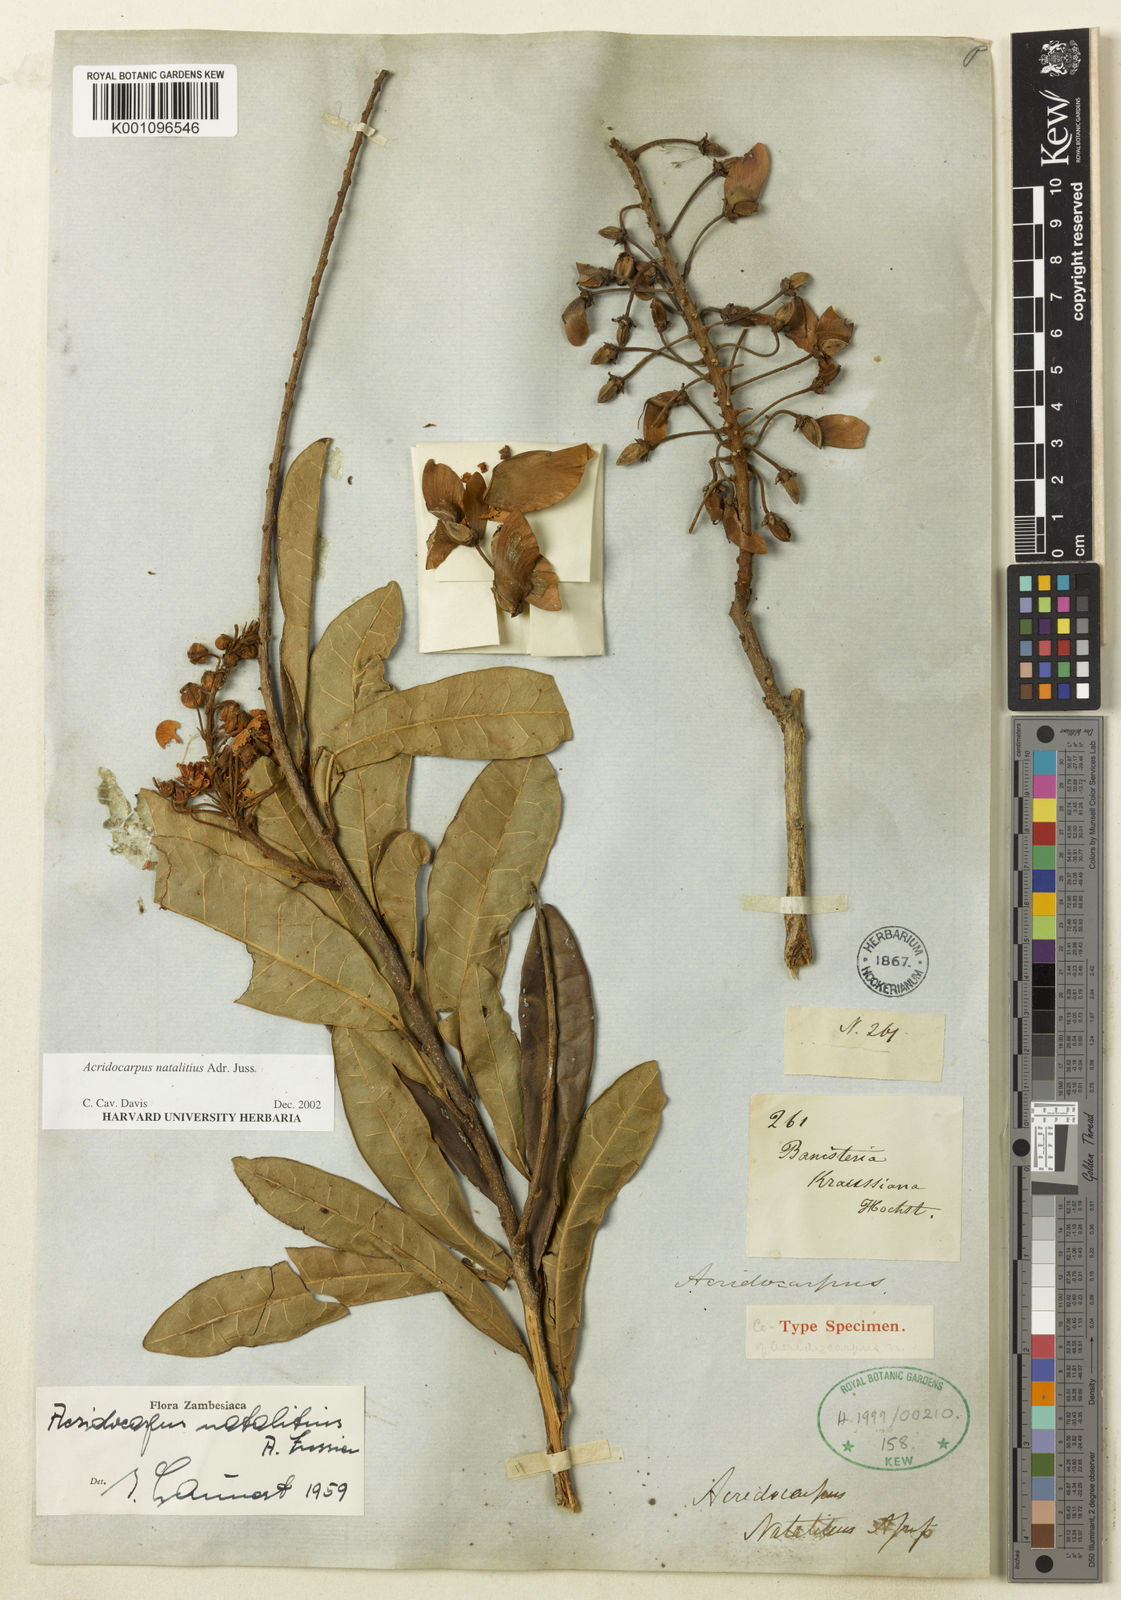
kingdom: Plantae
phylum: Tracheophyta
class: Magnoliopsida
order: Malpighiales
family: Malpighiaceae
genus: Acridocarpus
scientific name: Acridocarpus natalitius
